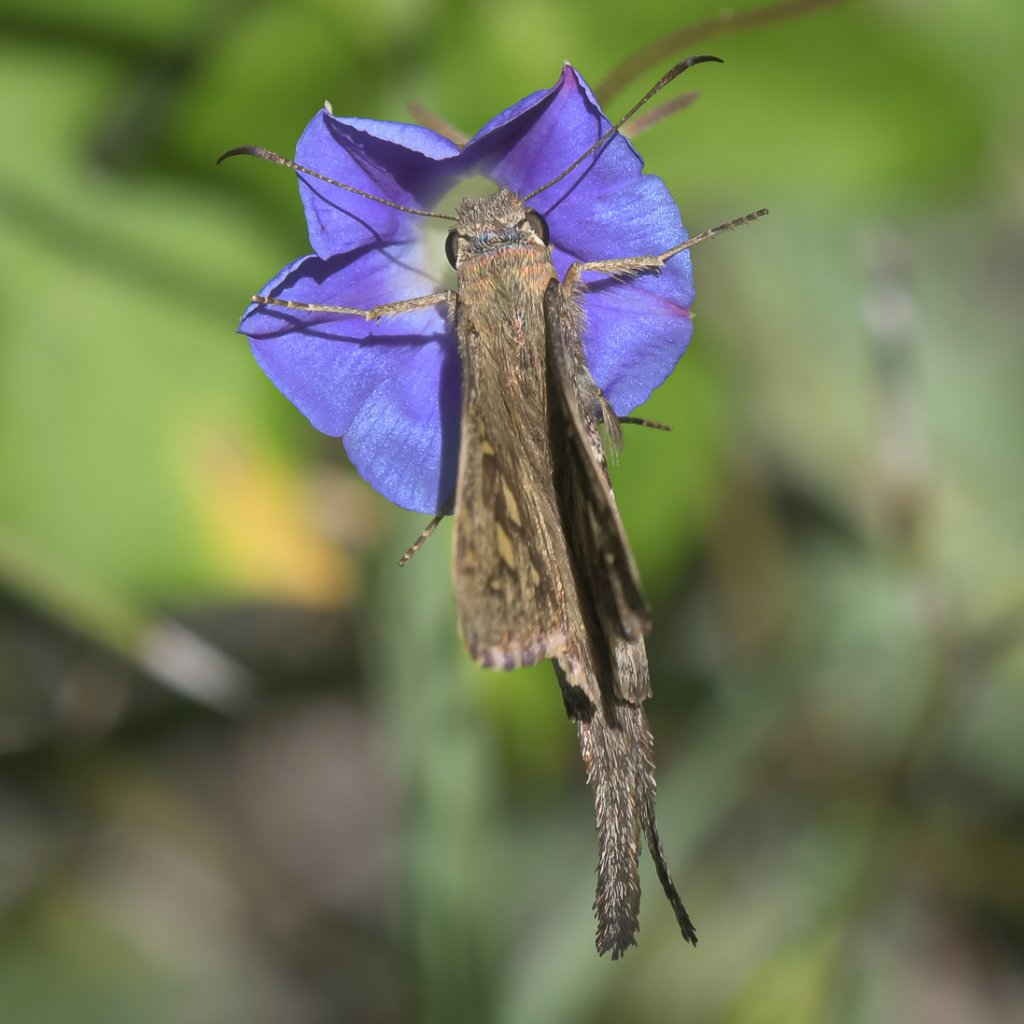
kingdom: Animalia
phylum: Arthropoda
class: Insecta
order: Lepidoptera
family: Hesperiidae
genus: Urbanus
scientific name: Urbanus dorantes
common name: Dorantes Longtail
